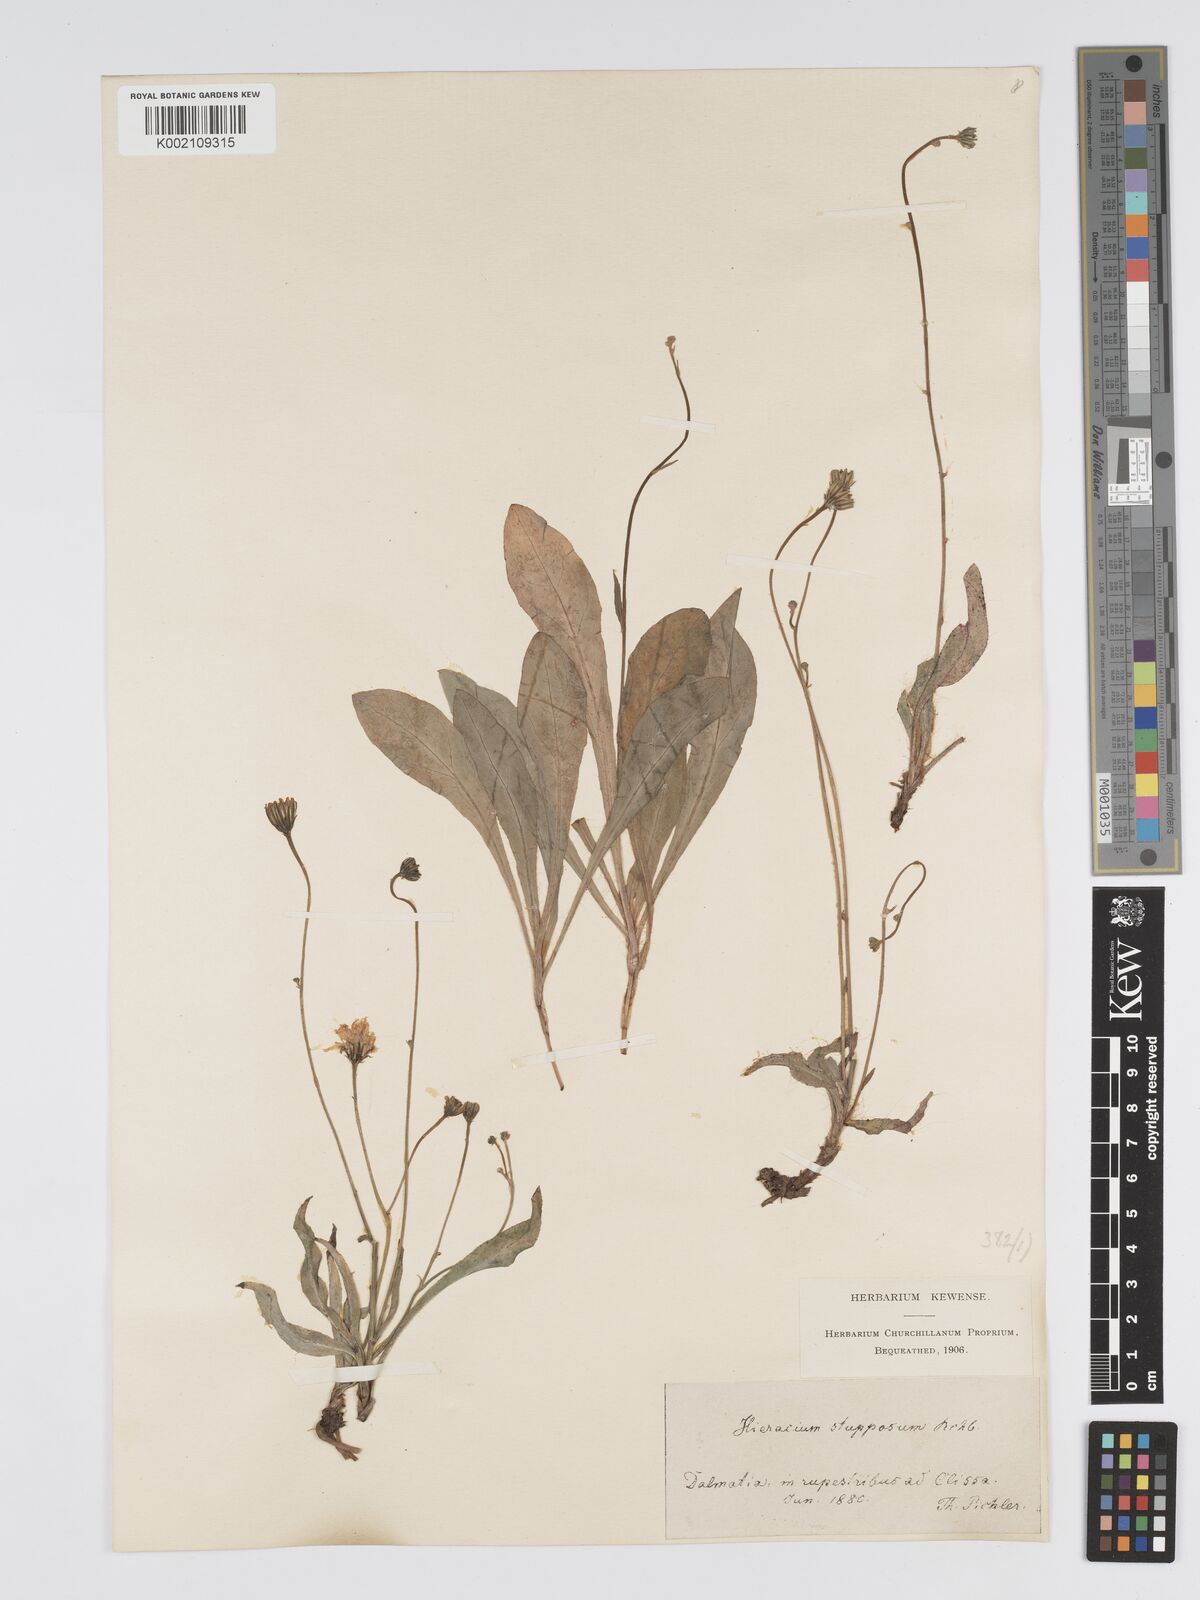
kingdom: Plantae
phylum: Tracheophyta
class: Magnoliopsida
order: Asterales
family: Asteraceae
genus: Hieracium
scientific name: Hieracium heterogynum
